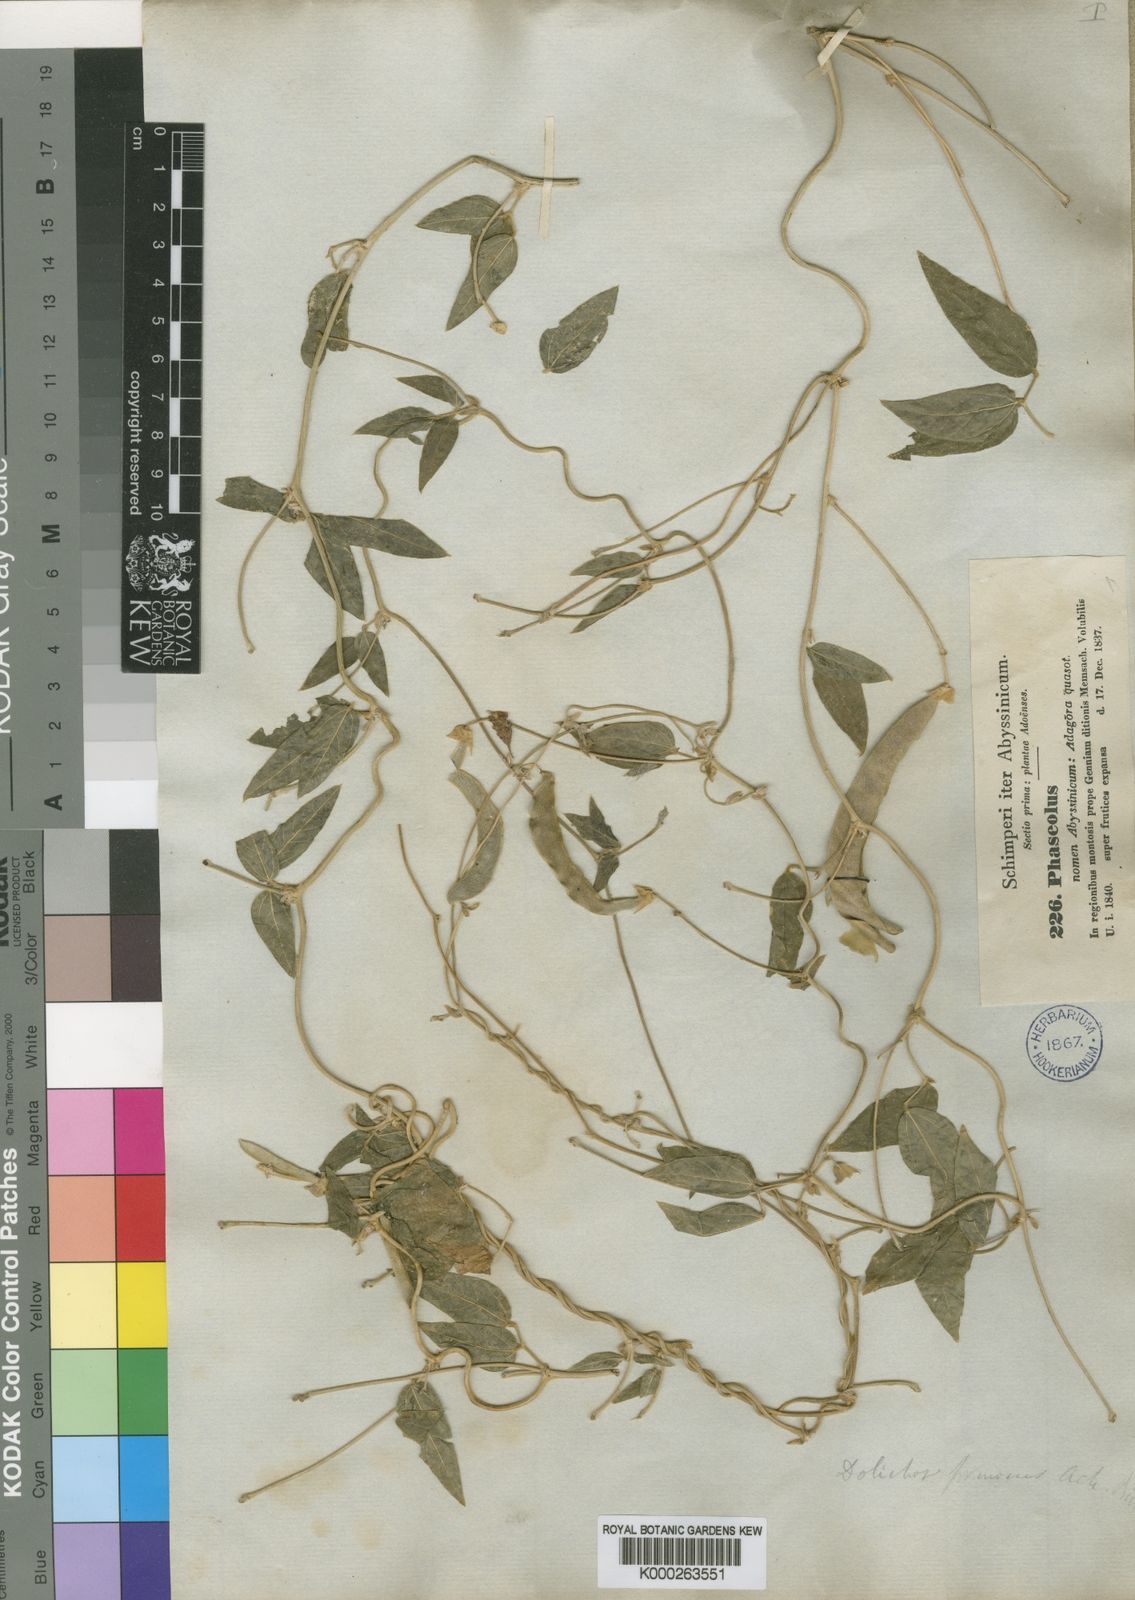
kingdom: Plantae
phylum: Tracheophyta
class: Magnoliopsida
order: Fabales
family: Fabaceae
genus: Dolichos
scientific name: Dolichos sericeus
